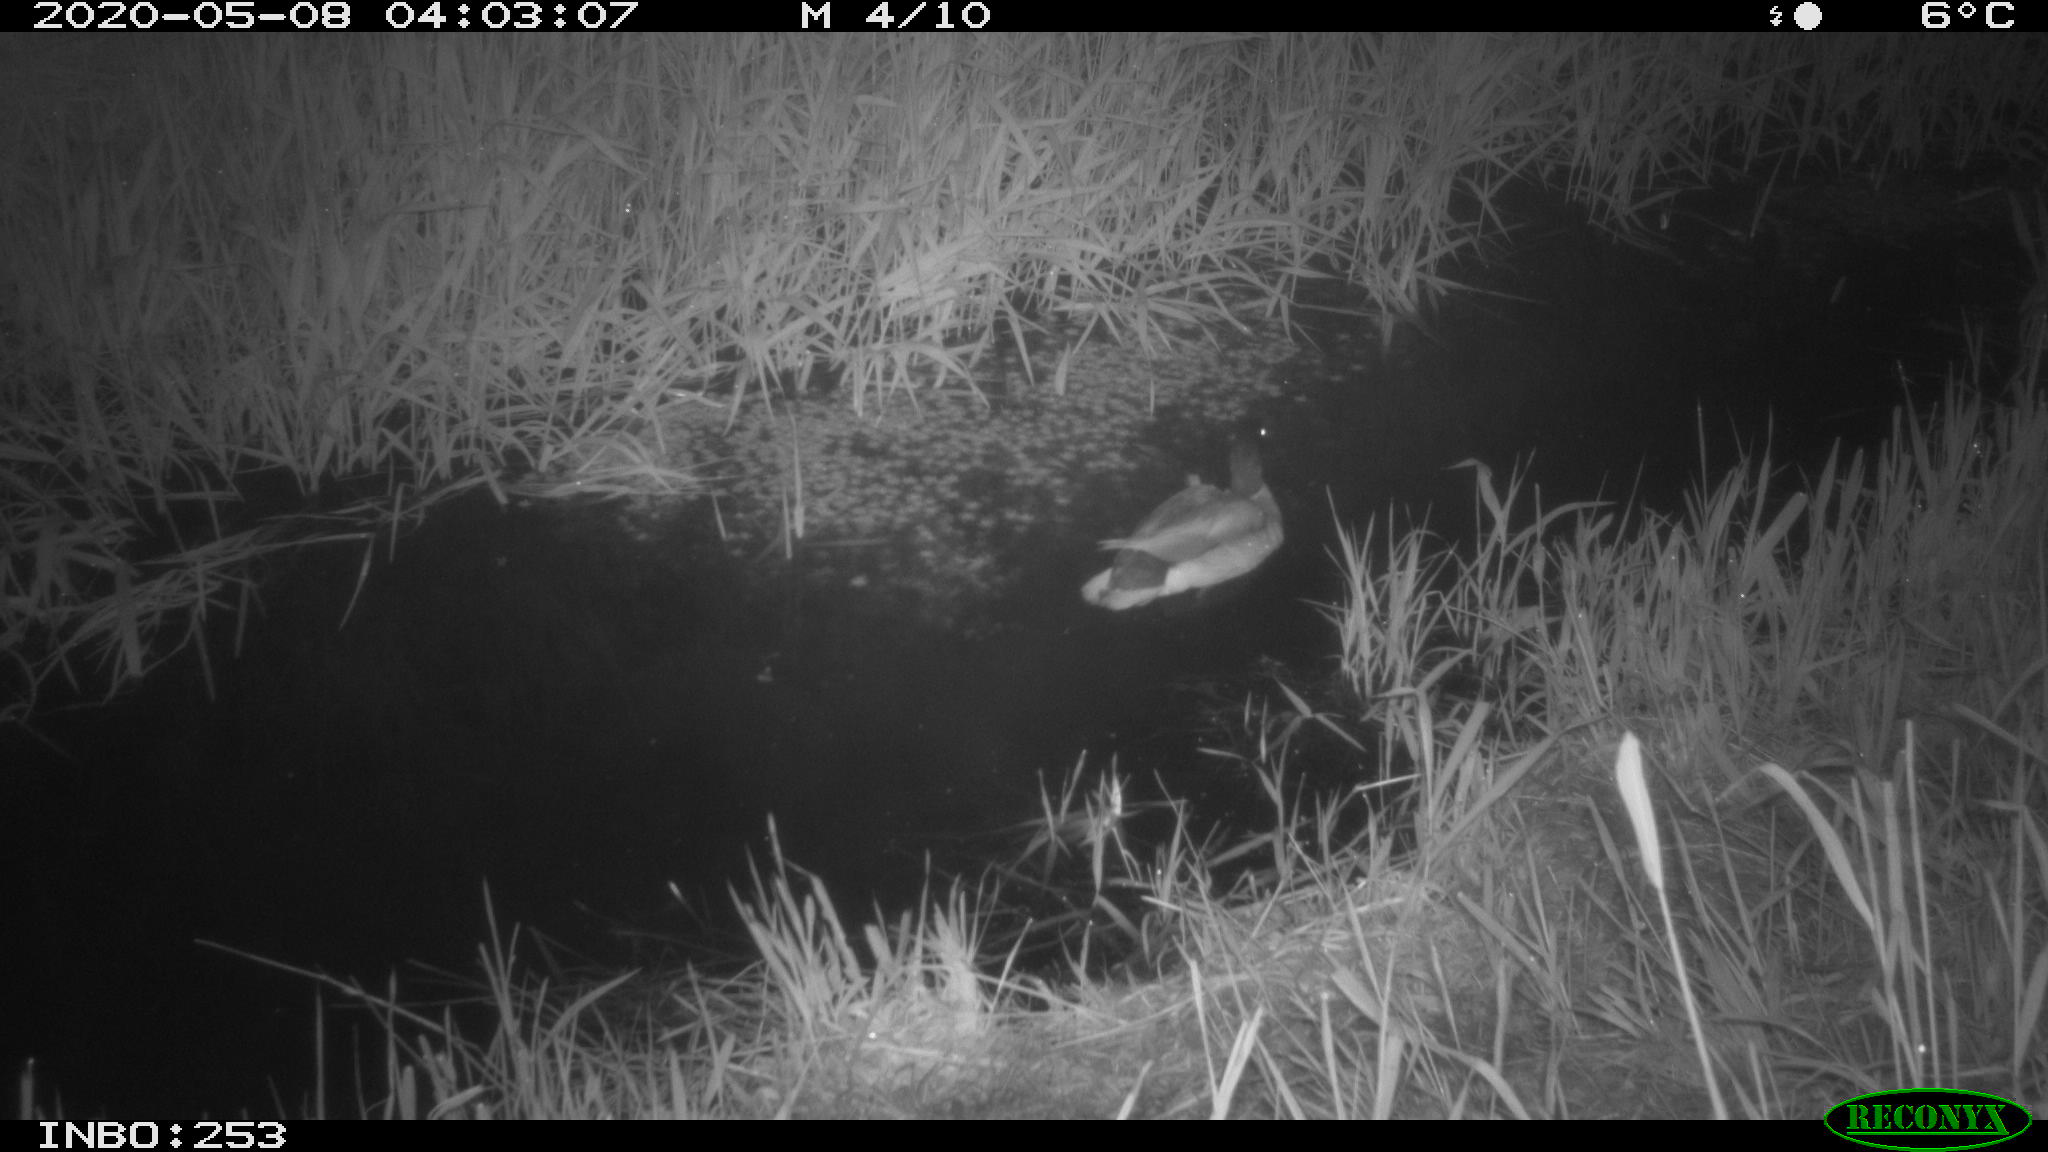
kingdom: Animalia
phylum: Chordata
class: Aves
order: Anseriformes
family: Anatidae
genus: Anas
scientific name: Anas platyrhynchos
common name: Mallard
